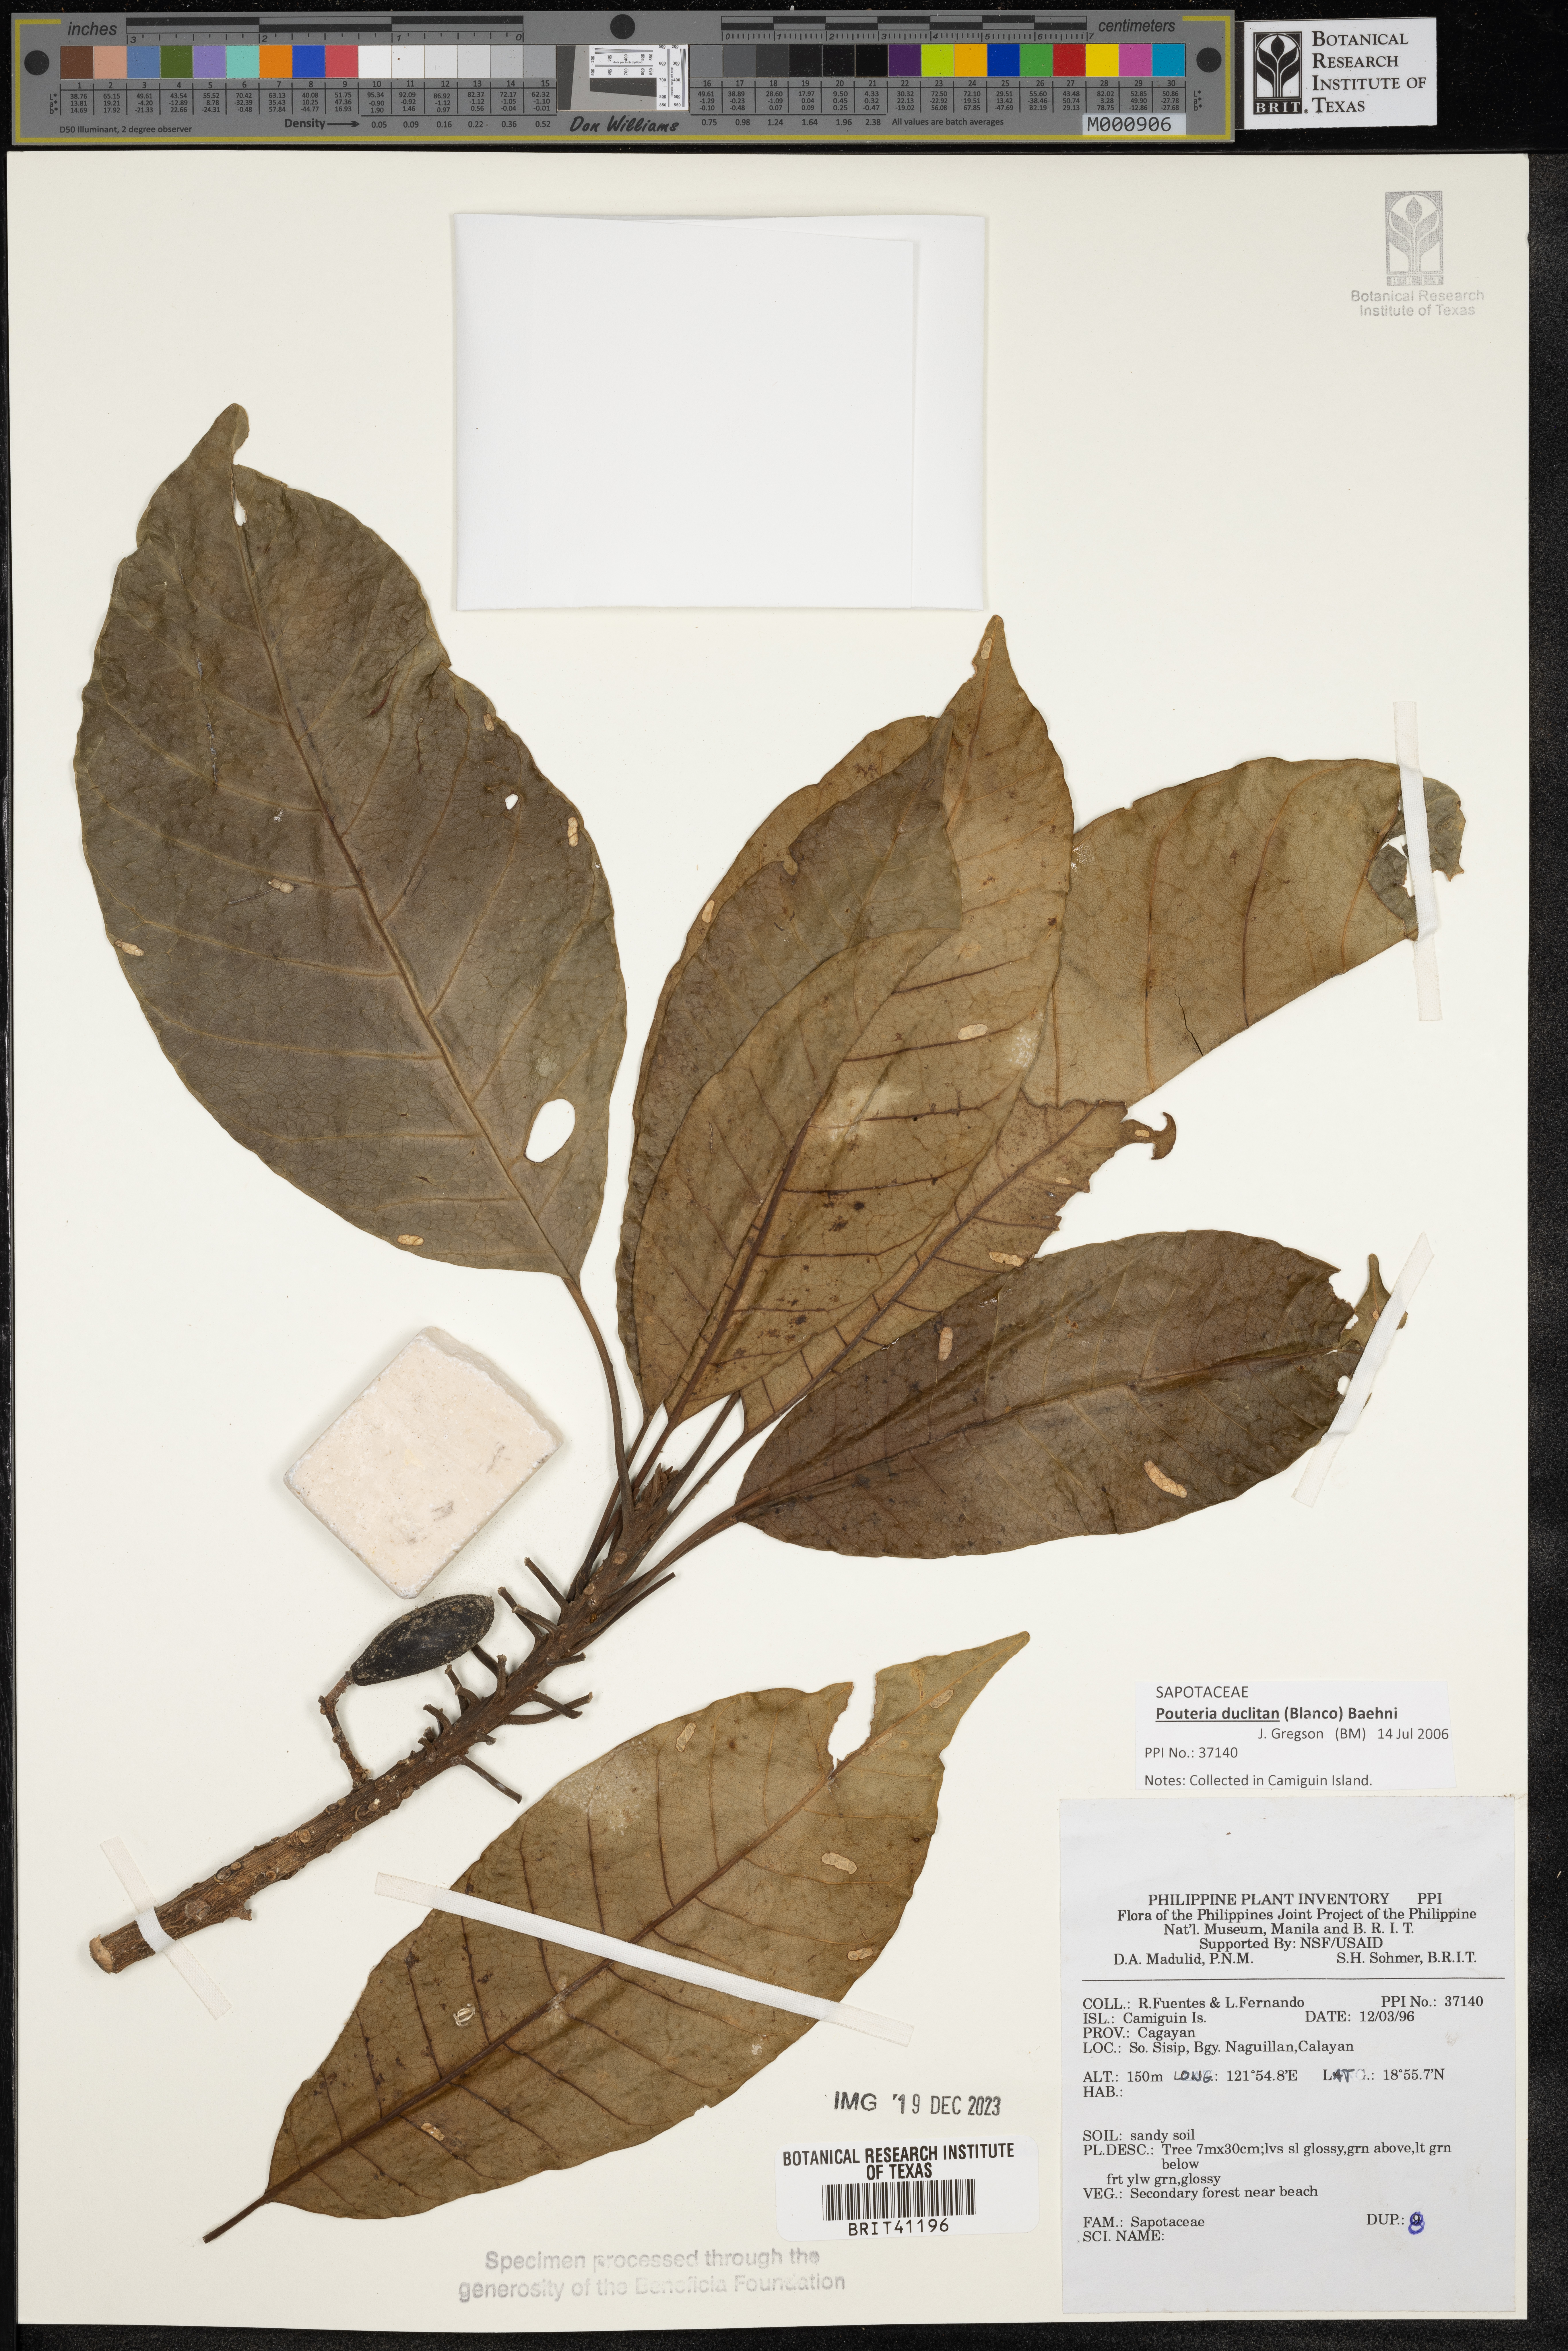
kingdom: Plantae
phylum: Tracheophyta
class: Magnoliopsida
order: Ericales
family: Sapotaceae
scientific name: Sapotaceae
